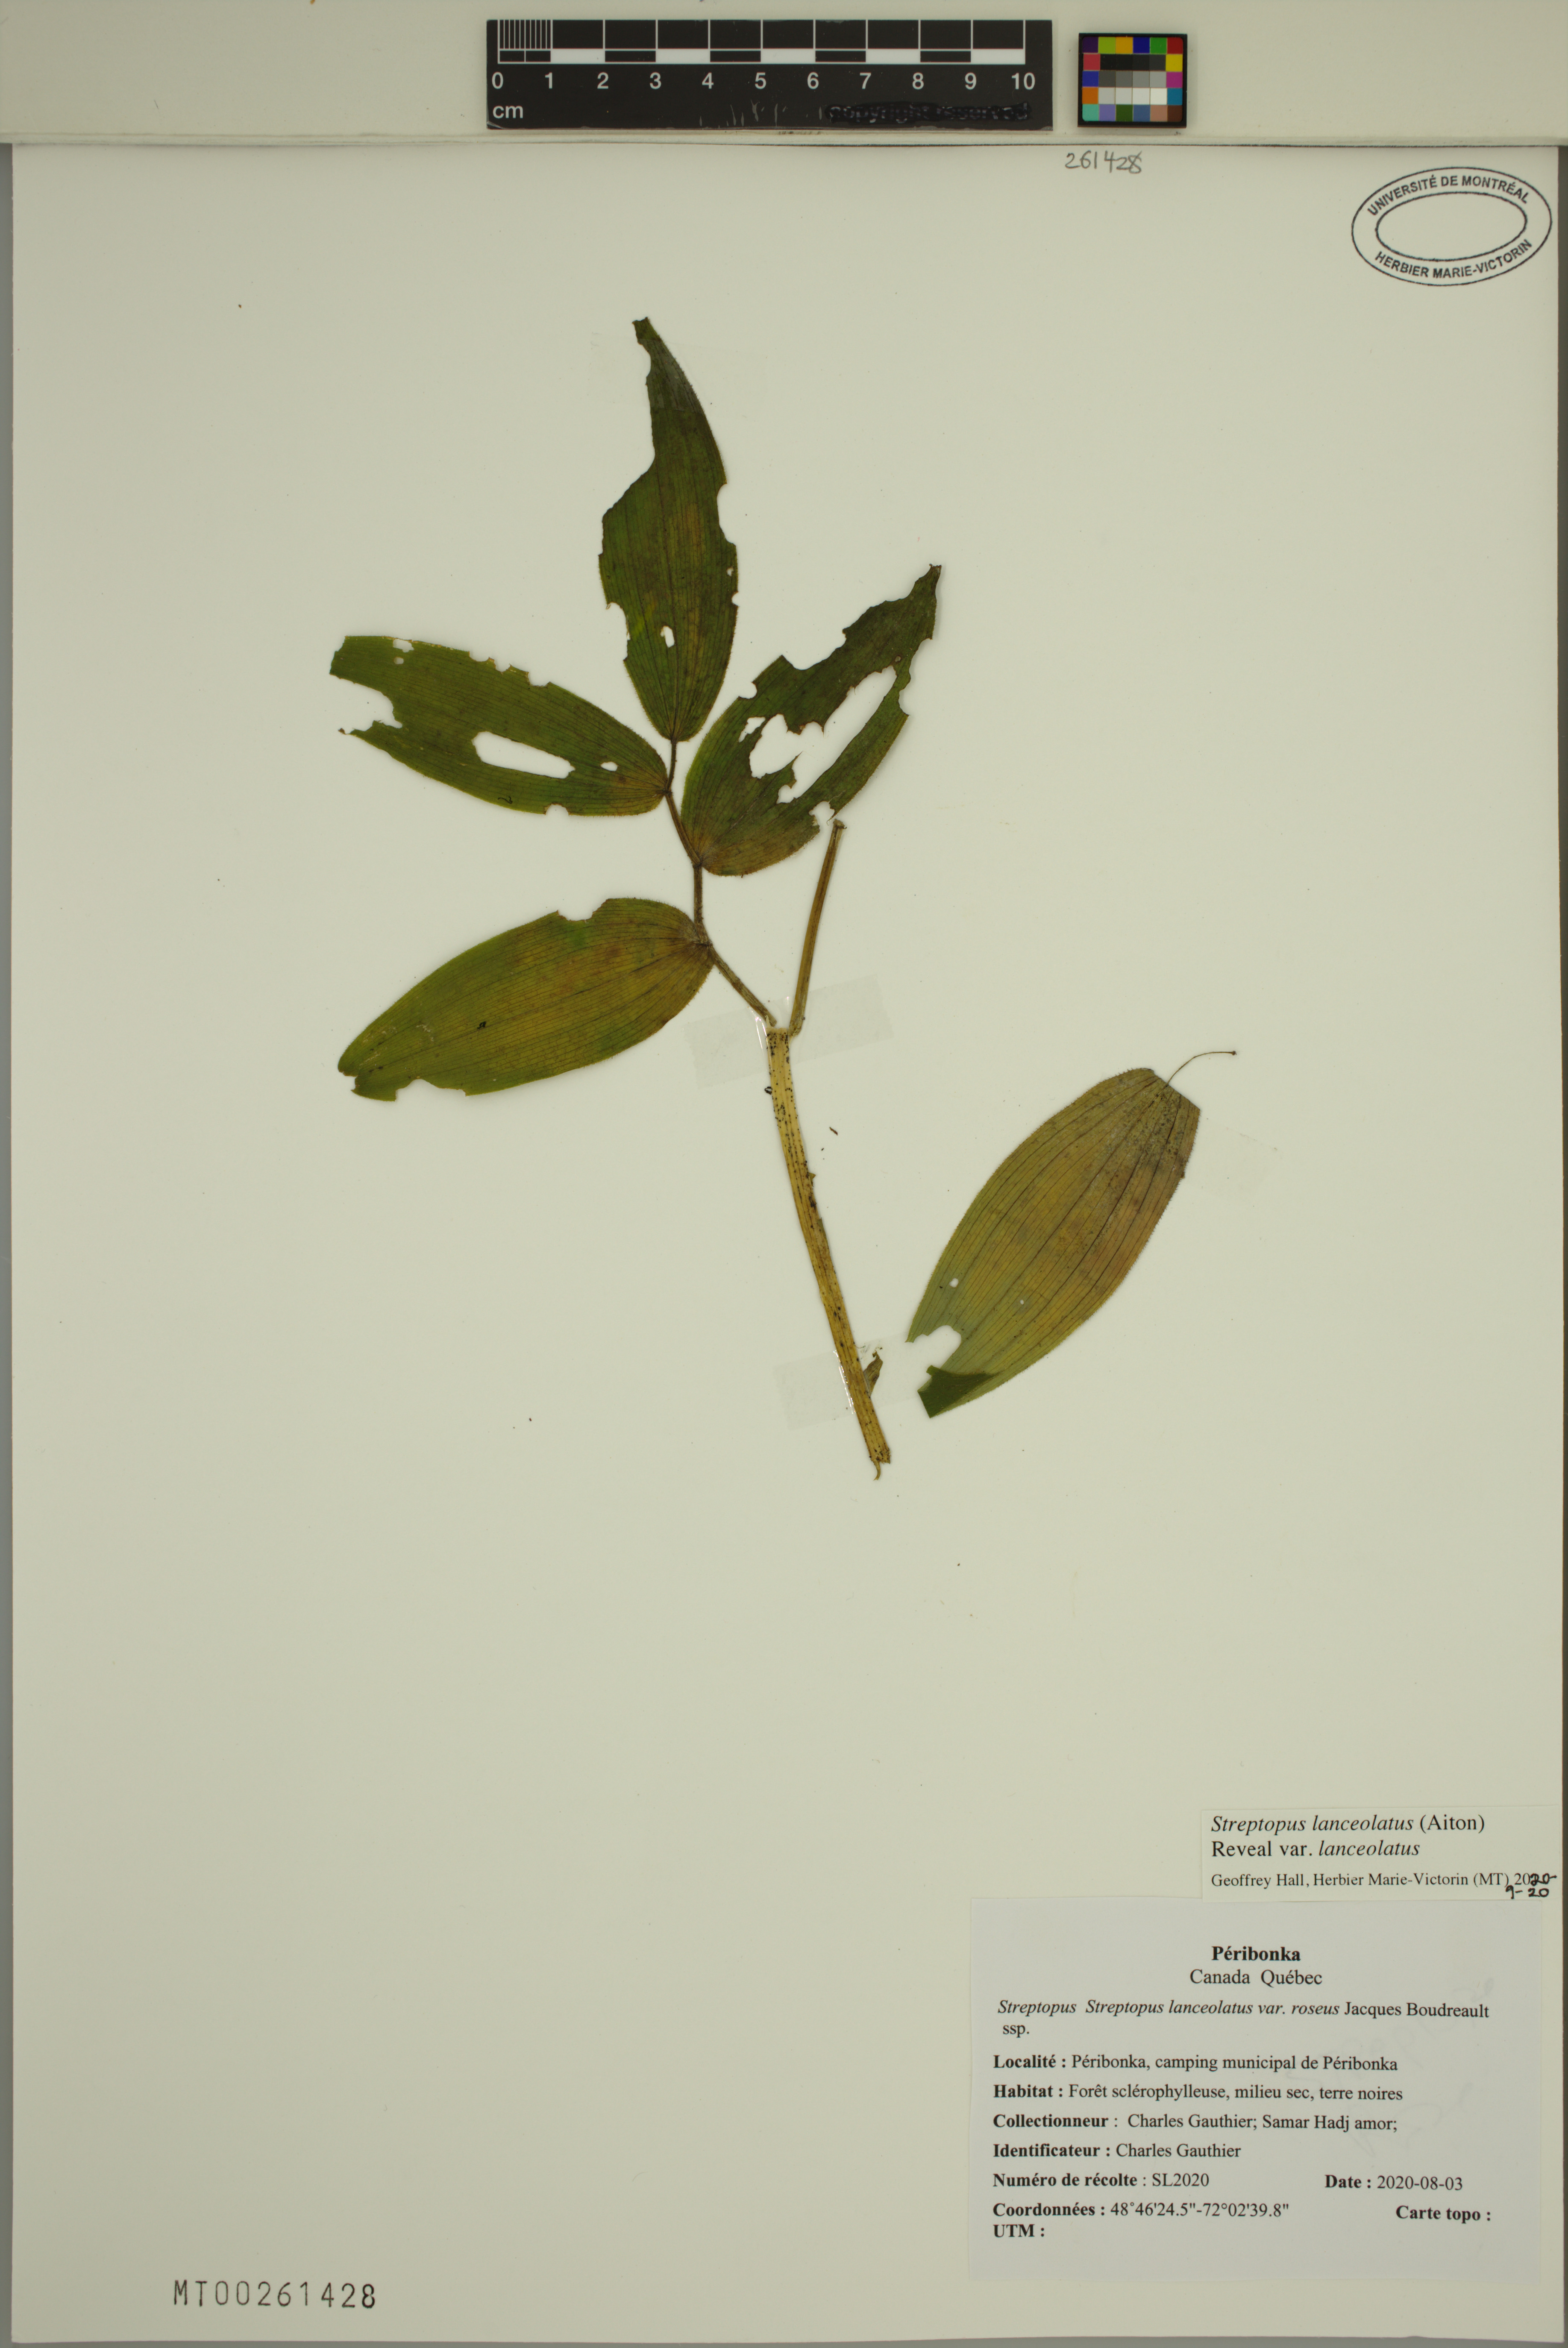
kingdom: Plantae
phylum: Tracheophyta
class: Liliopsida
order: Liliales
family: Liliaceae
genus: Streptopus
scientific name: Streptopus lanceolatus
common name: Rose mandarin
